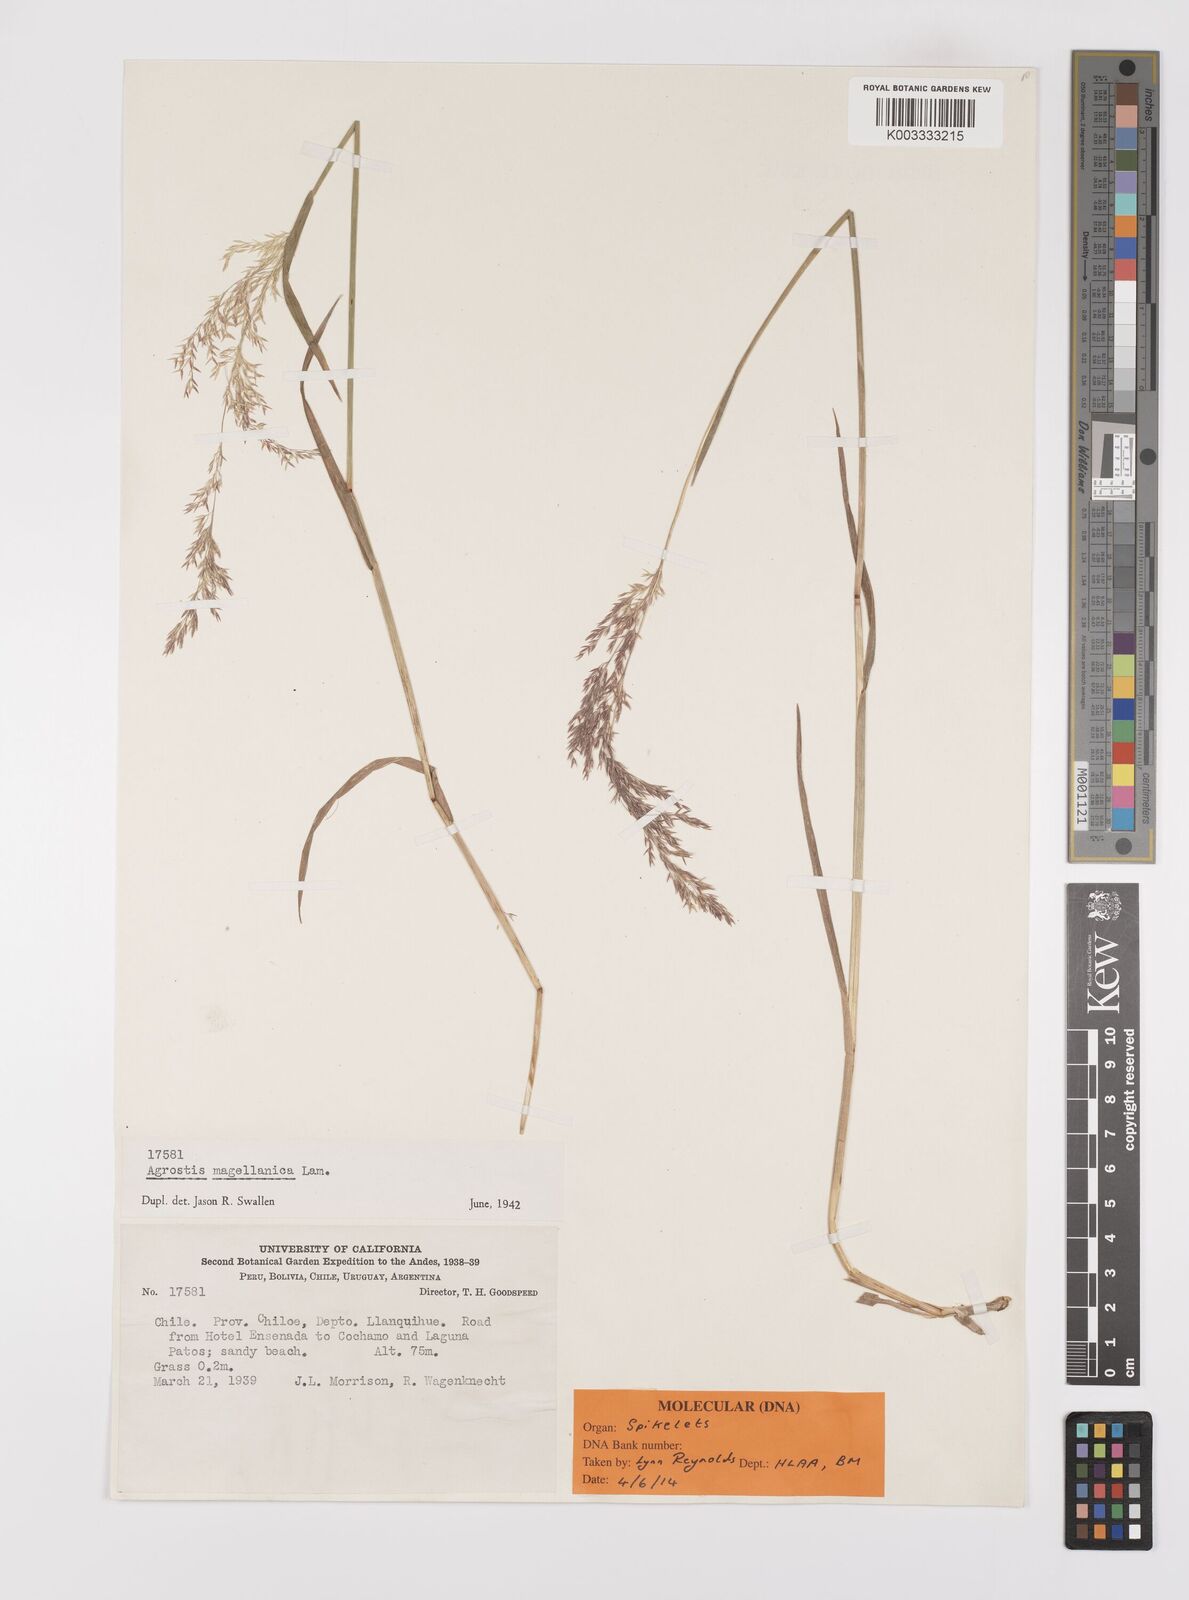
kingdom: Plantae
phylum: Tracheophyta
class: Liliopsida
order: Poales
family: Poaceae
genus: Polypogon
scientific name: Polypogon exasperatus
